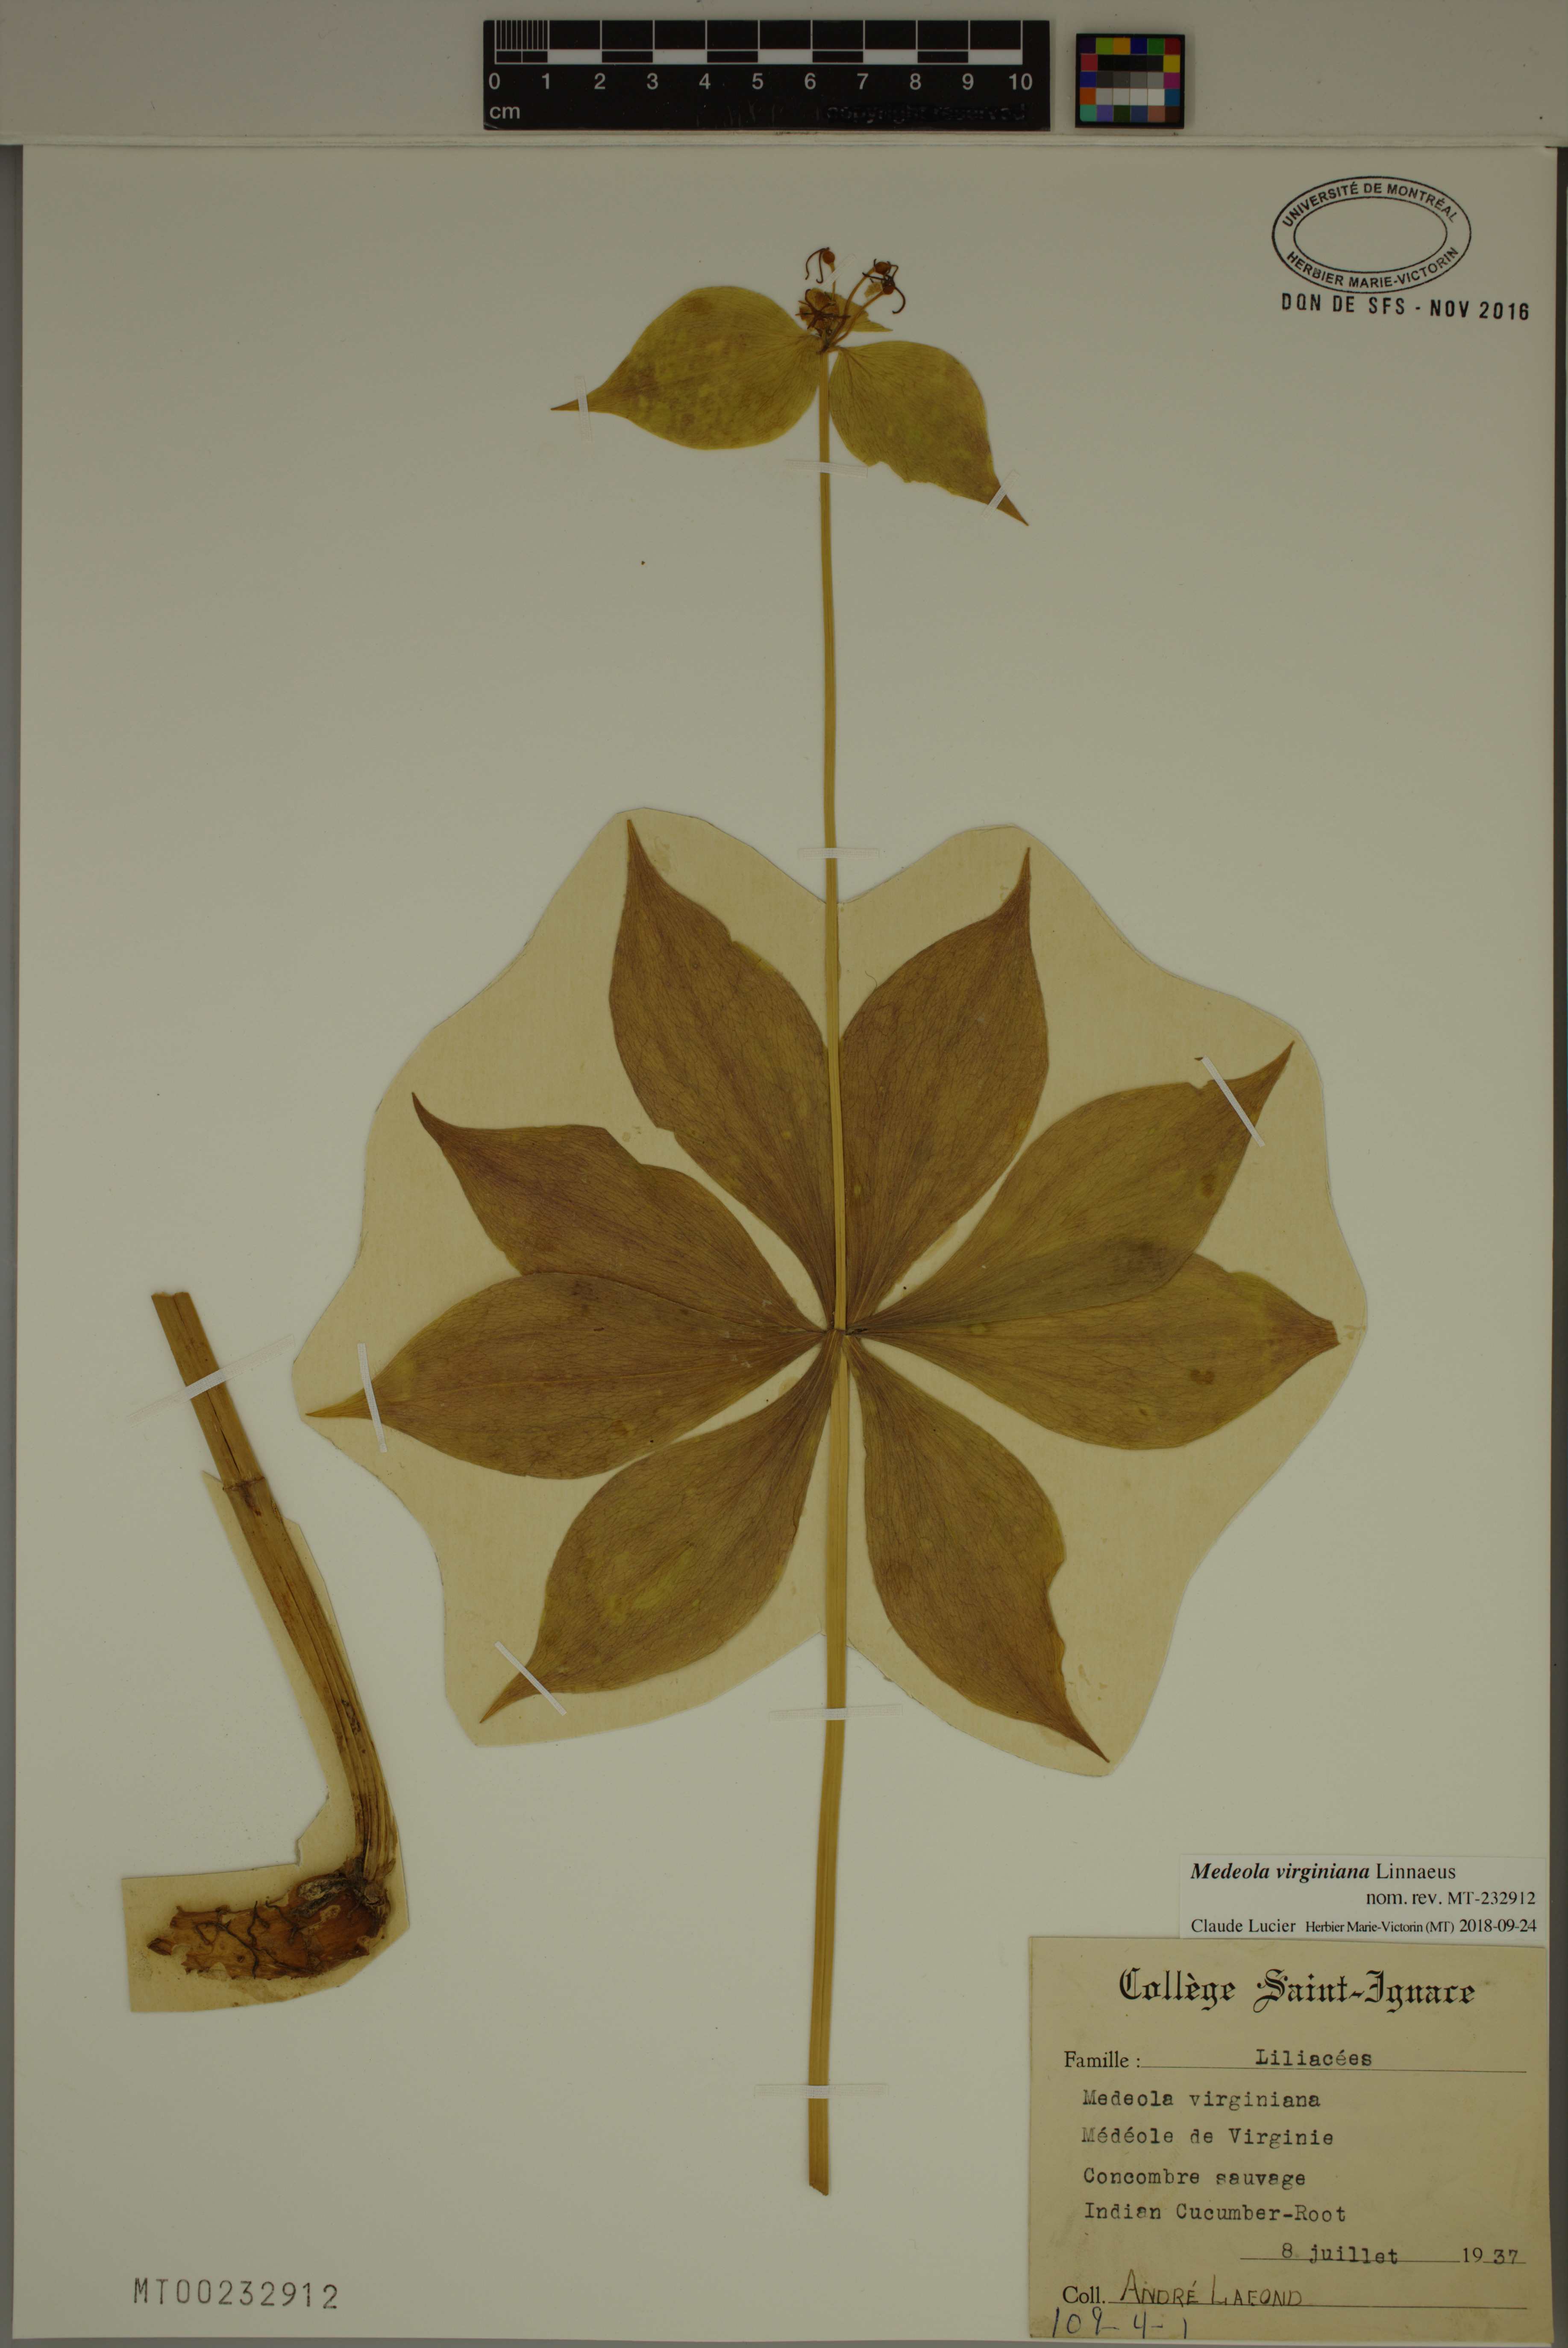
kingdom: Plantae
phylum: Tracheophyta
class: Liliopsida
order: Liliales
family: Liliaceae
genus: Medeola
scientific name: Medeola virginiana
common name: Indian cucumber-root
